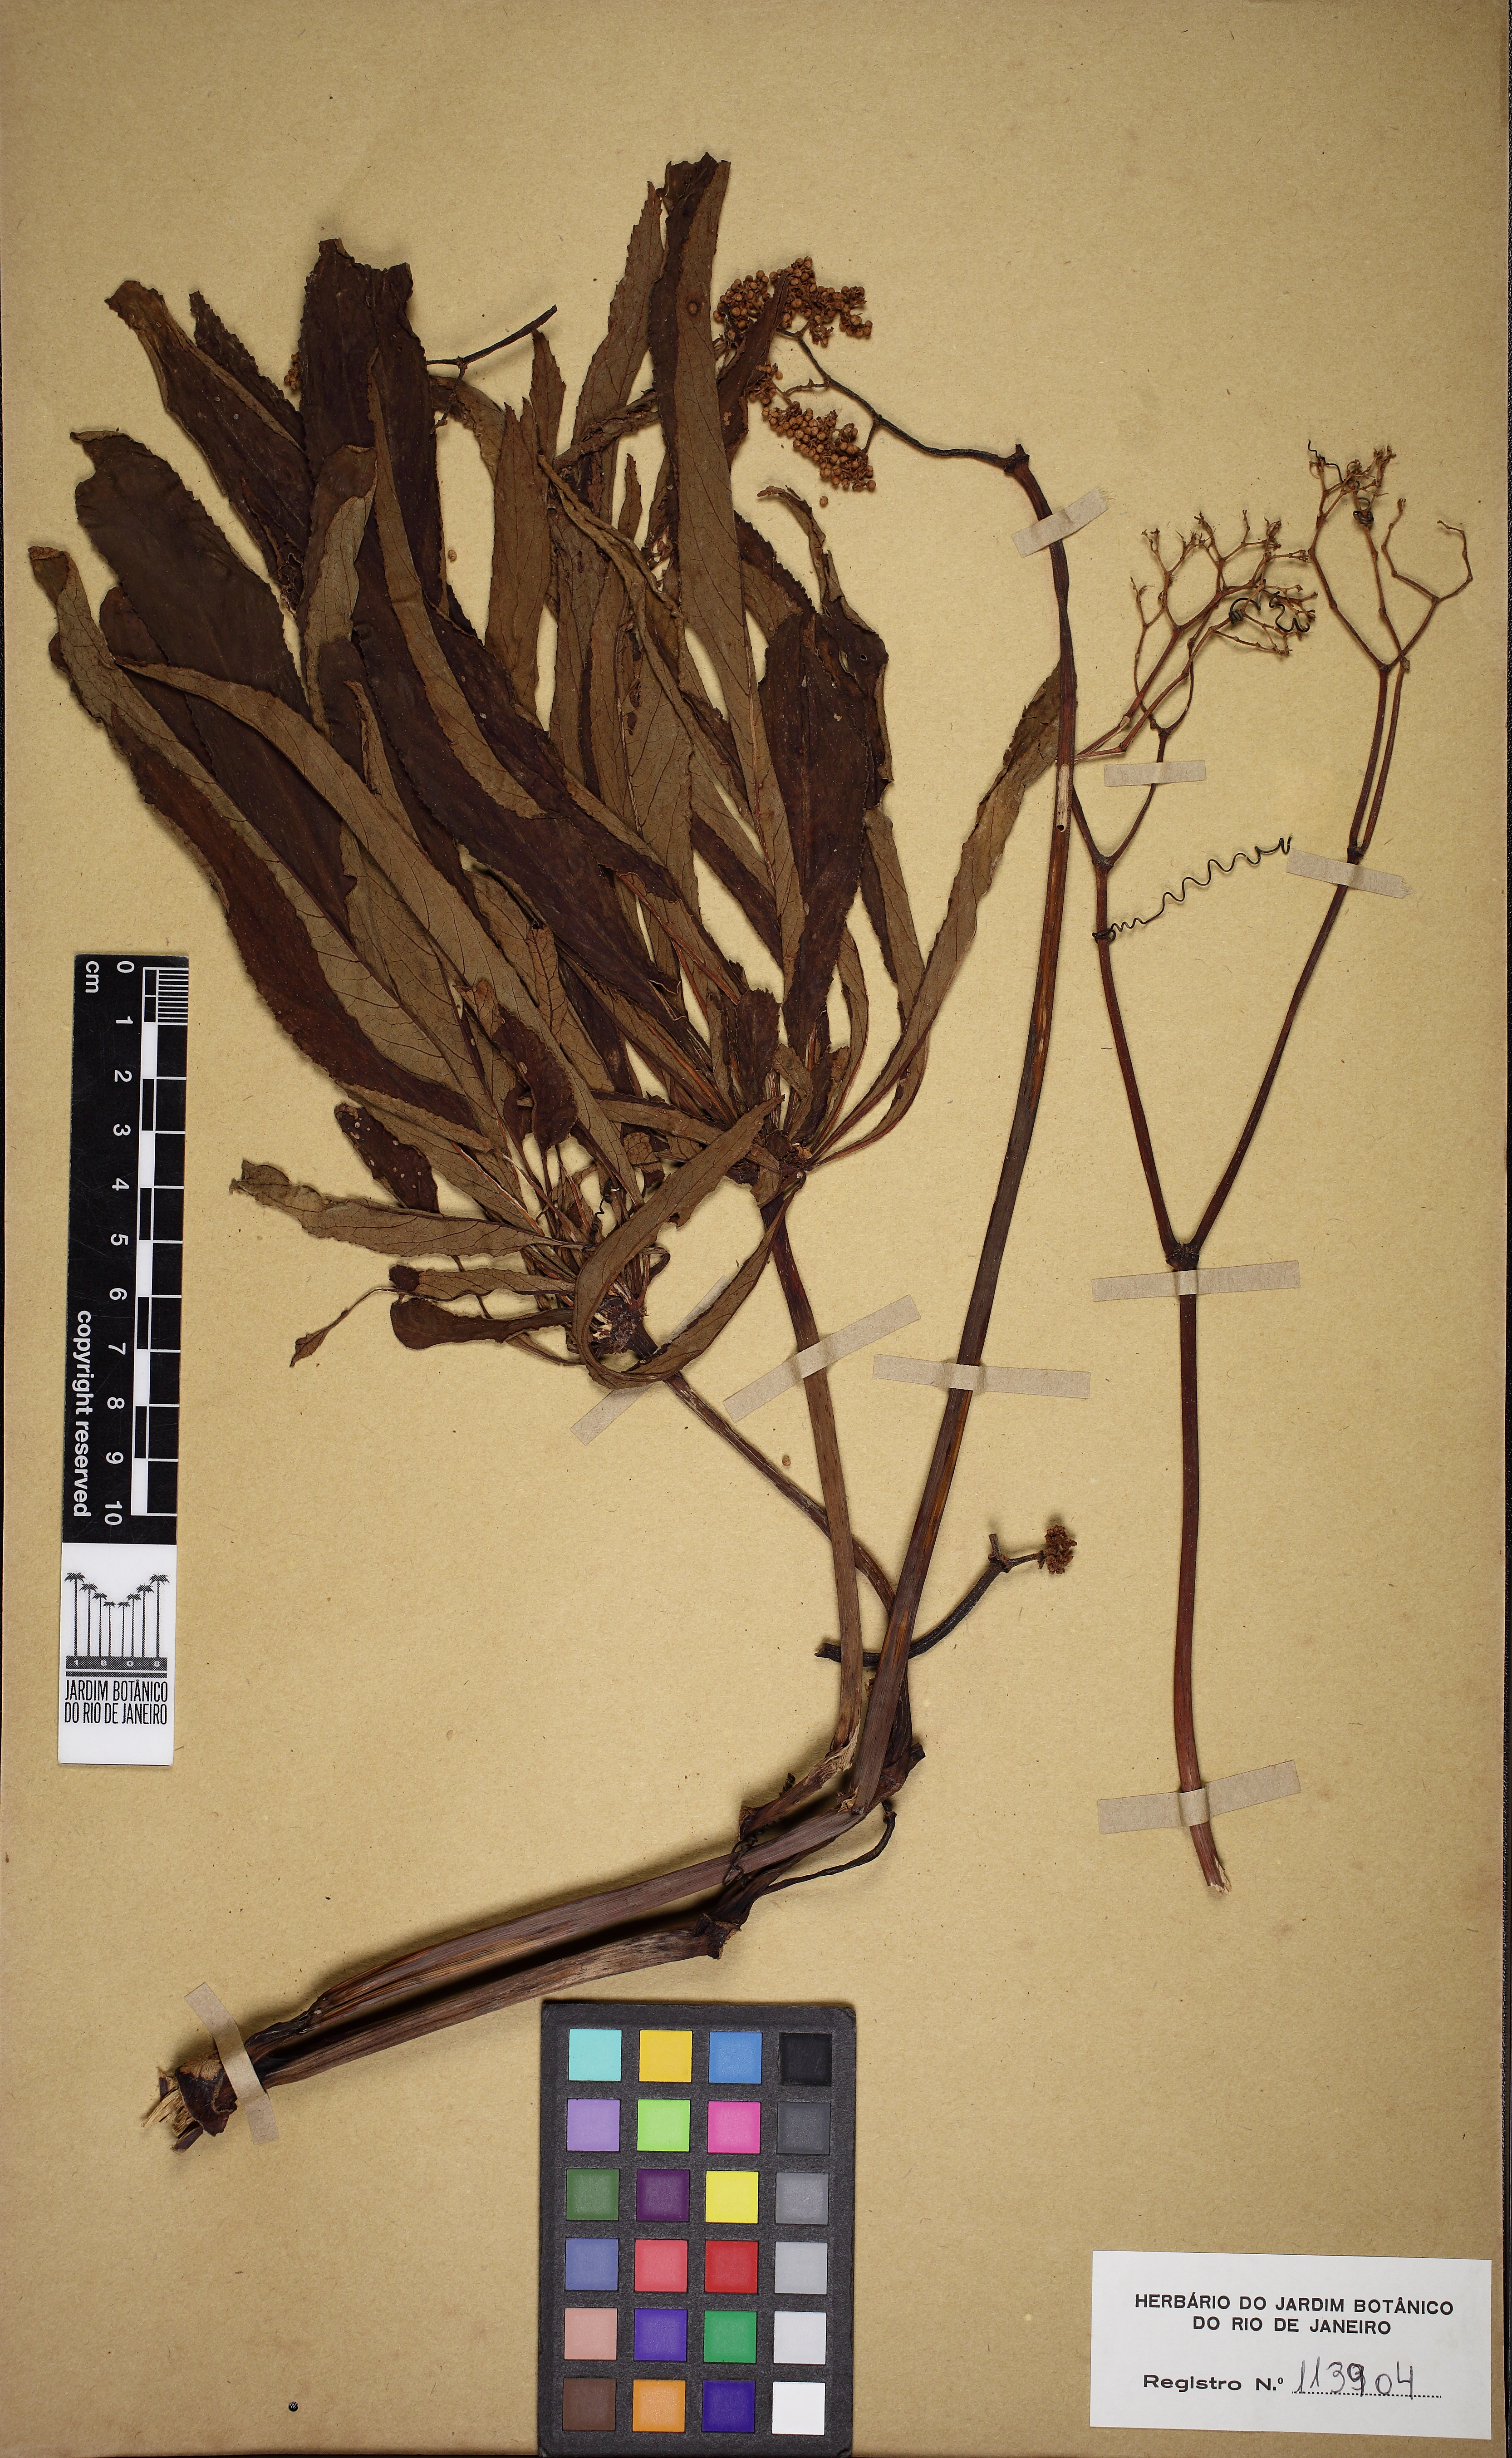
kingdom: Plantae
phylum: Tracheophyta
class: Magnoliopsida
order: Cucurbitales
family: Begoniaceae
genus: Begonia
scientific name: Begonia luxurians
